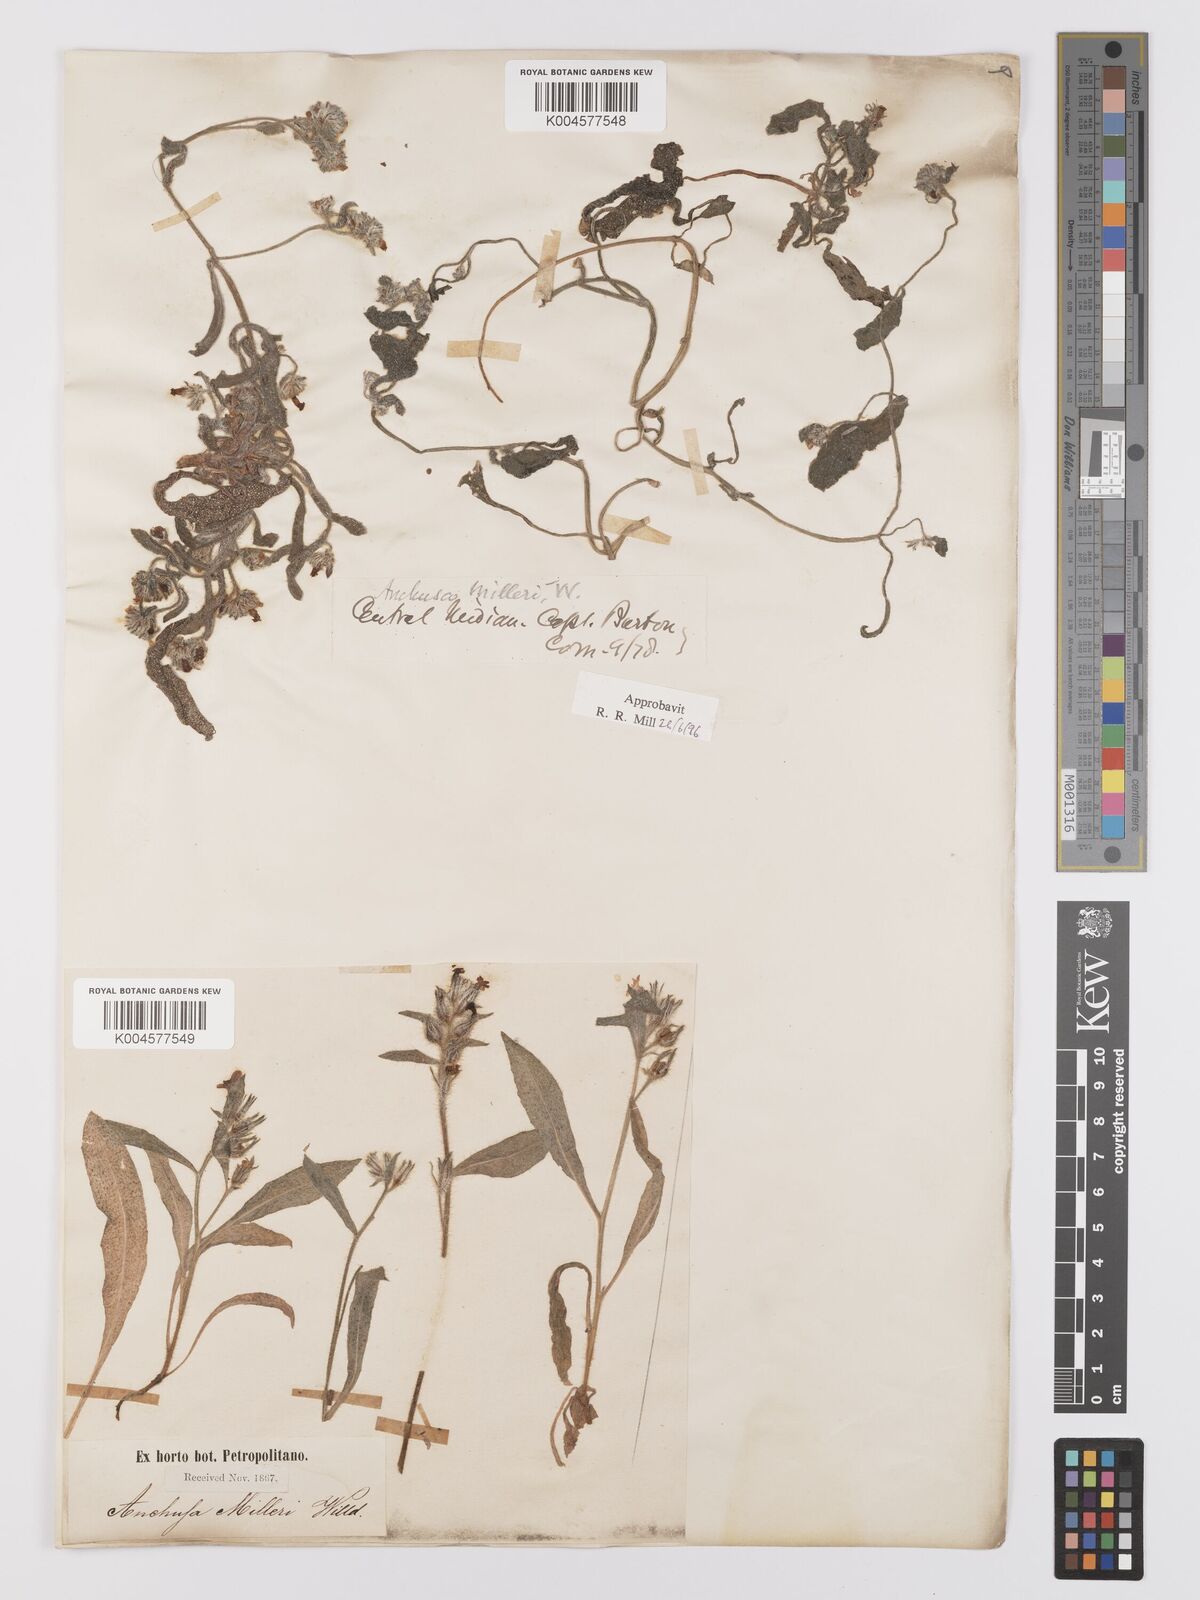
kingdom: Plantae
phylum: Tracheophyta
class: Magnoliopsida
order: Boraginales
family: Boraginaceae
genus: Anchusa
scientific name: Anchusa milleri
